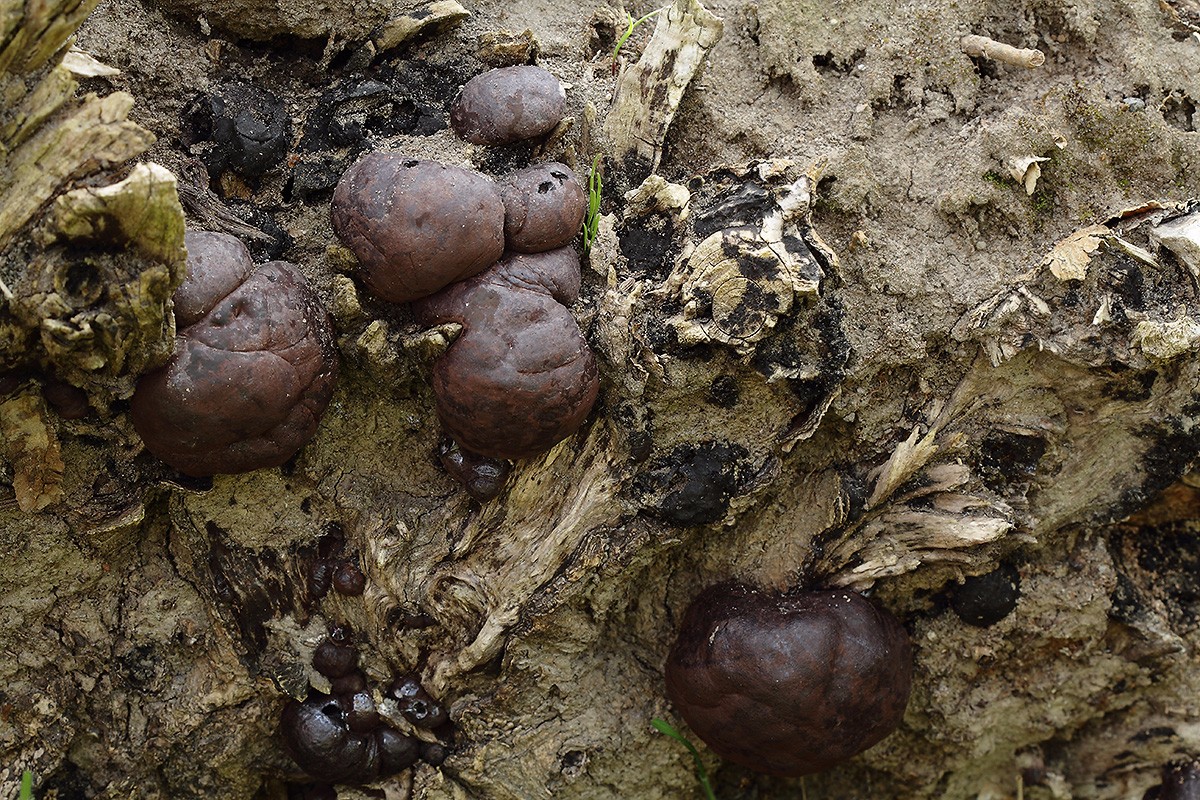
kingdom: Fungi
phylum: Ascomycota
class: Sordariomycetes
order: Xylariales
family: Hypoxylaceae
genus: Daldinia
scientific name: Daldinia concentrica
